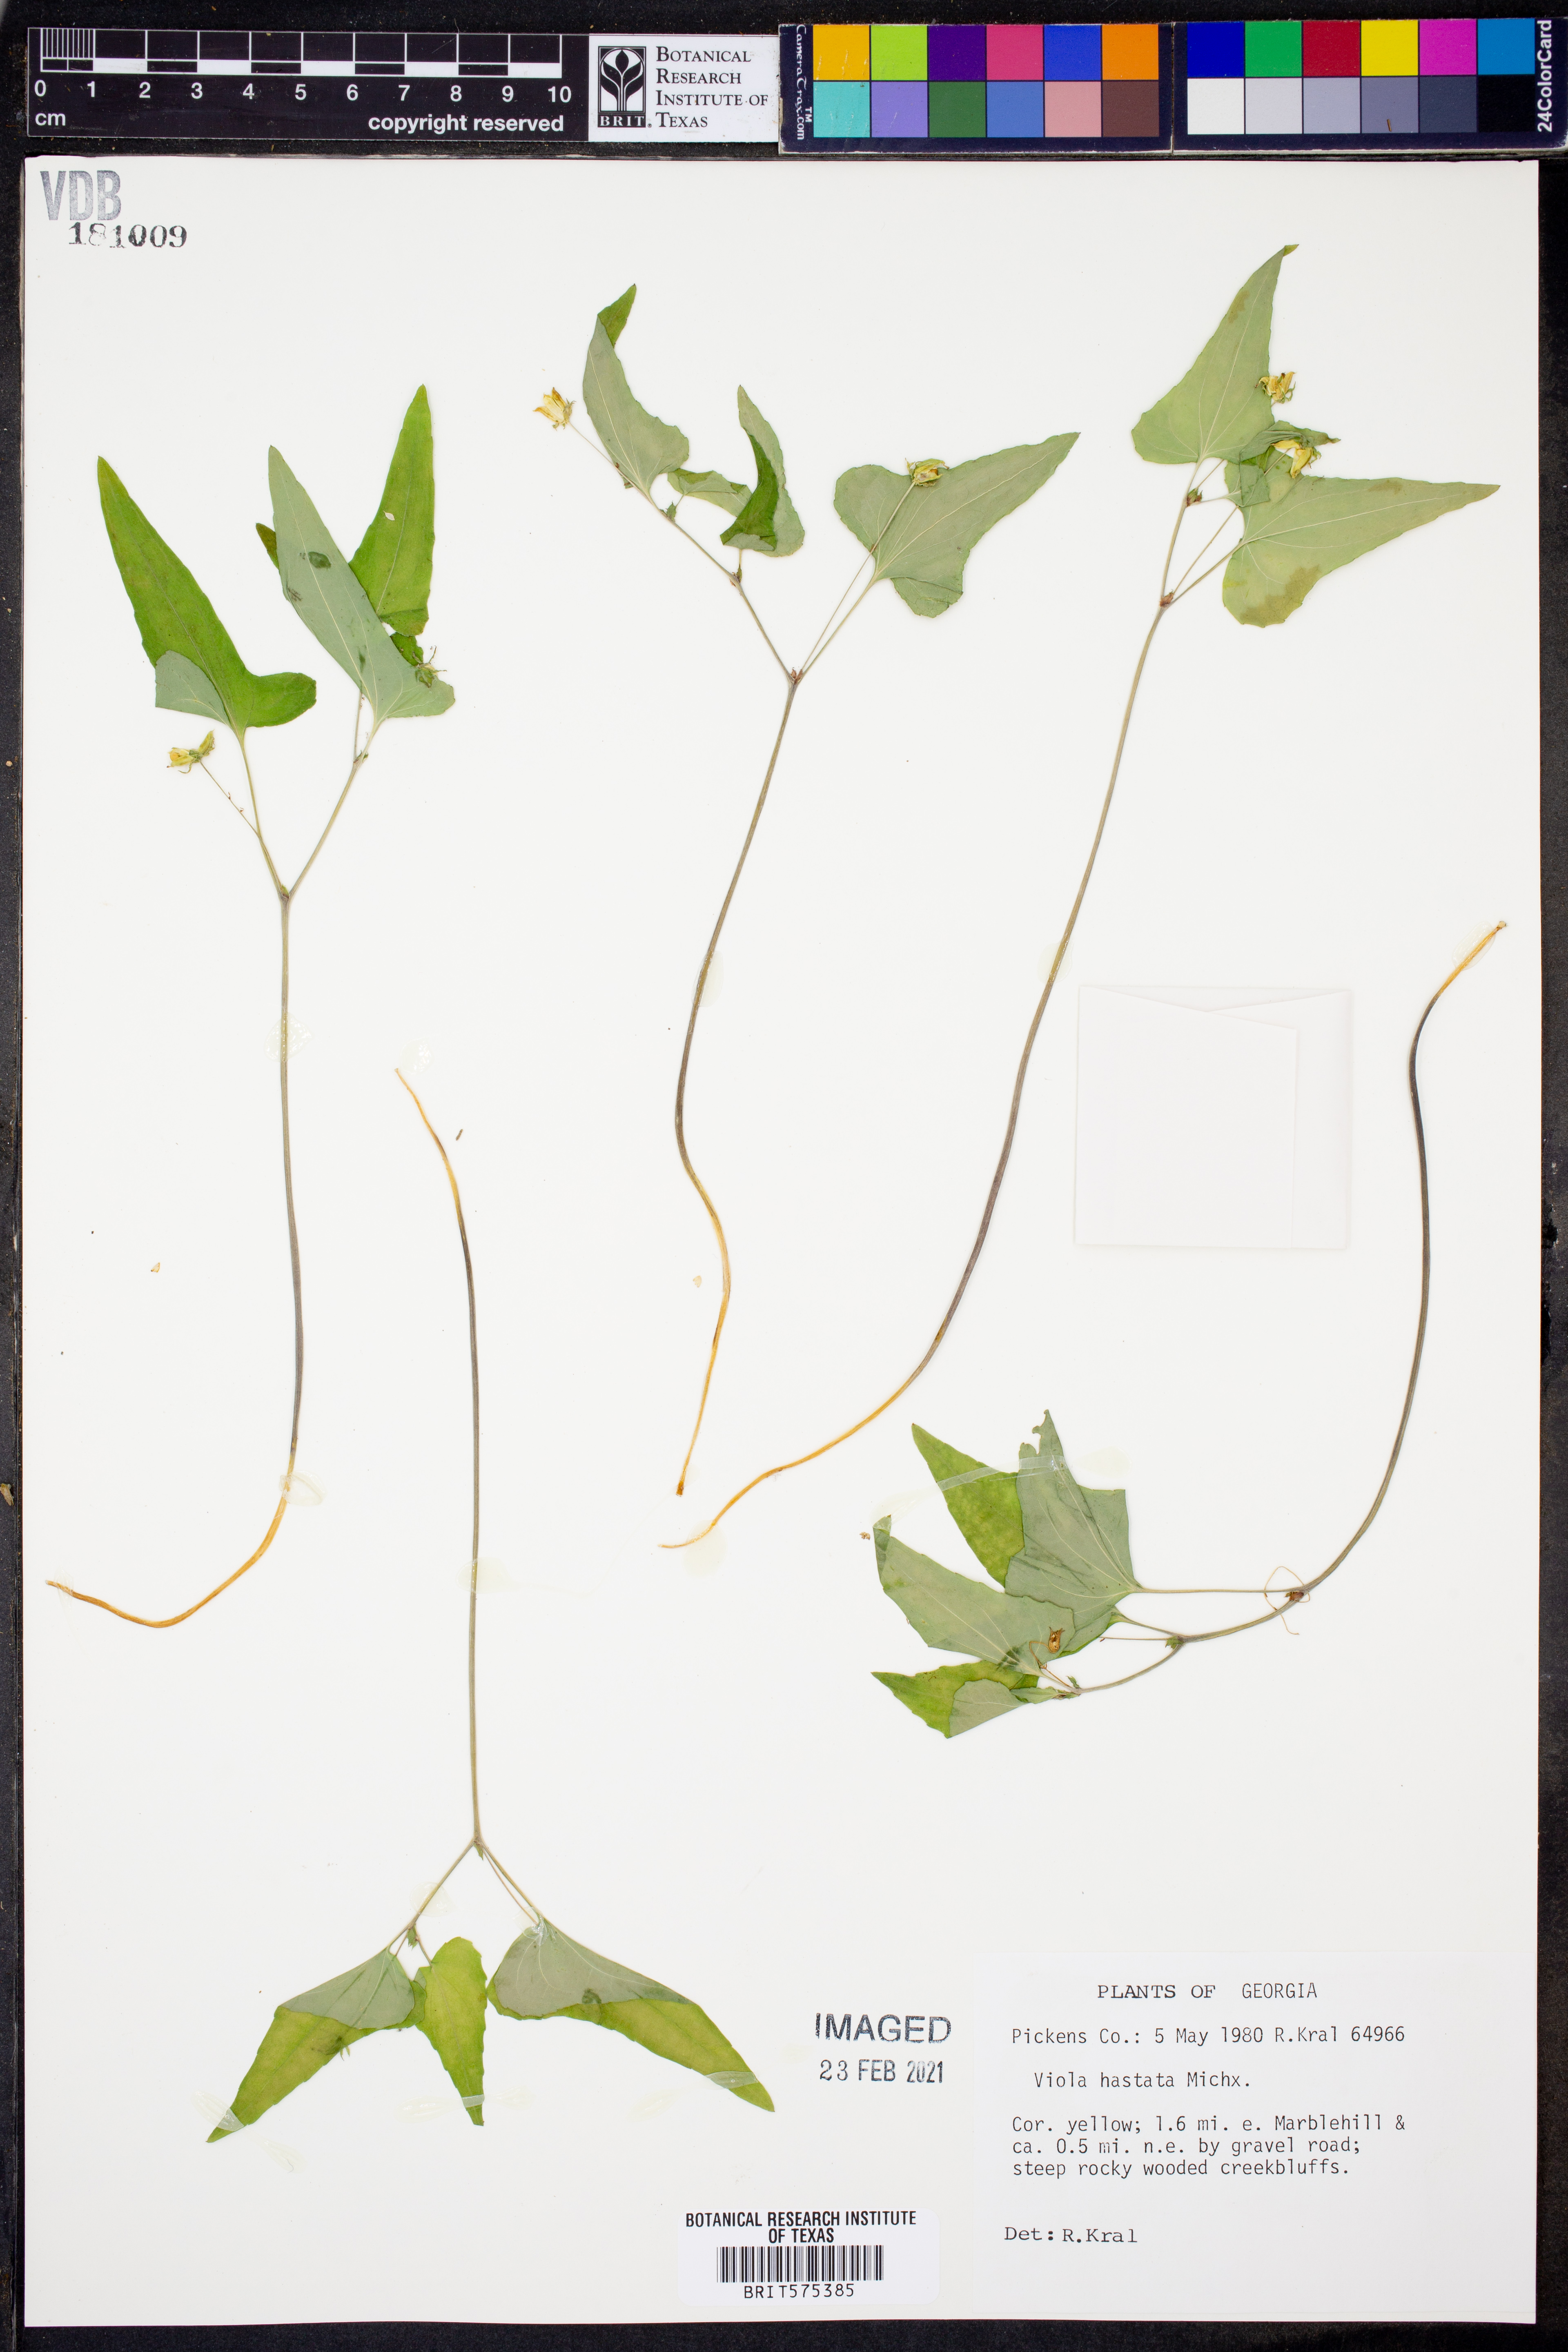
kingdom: Plantae
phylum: Tracheophyta
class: Magnoliopsida
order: Malpighiales
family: Violaceae
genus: Viola
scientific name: Viola hastata
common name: Spear-leaf violet
